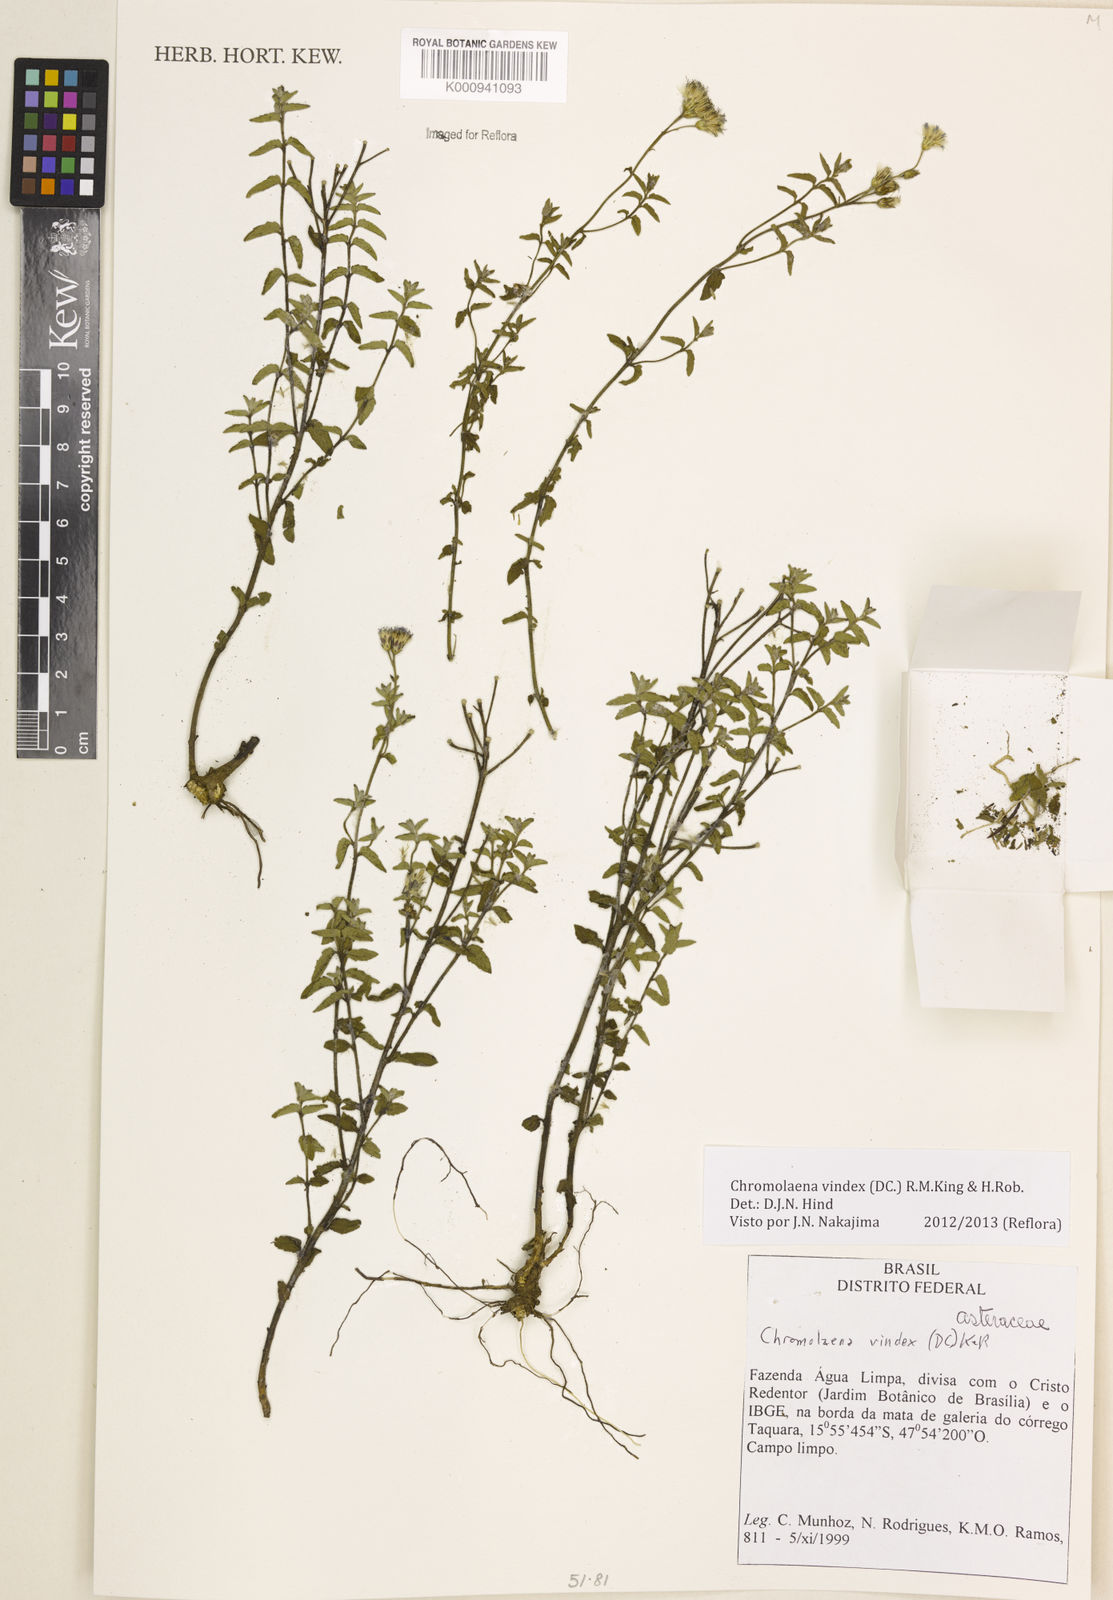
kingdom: Plantae
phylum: Tracheophyta
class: Magnoliopsida
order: Asterales
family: Asteraceae
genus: Chromolaena
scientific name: Chromolaena vindex
